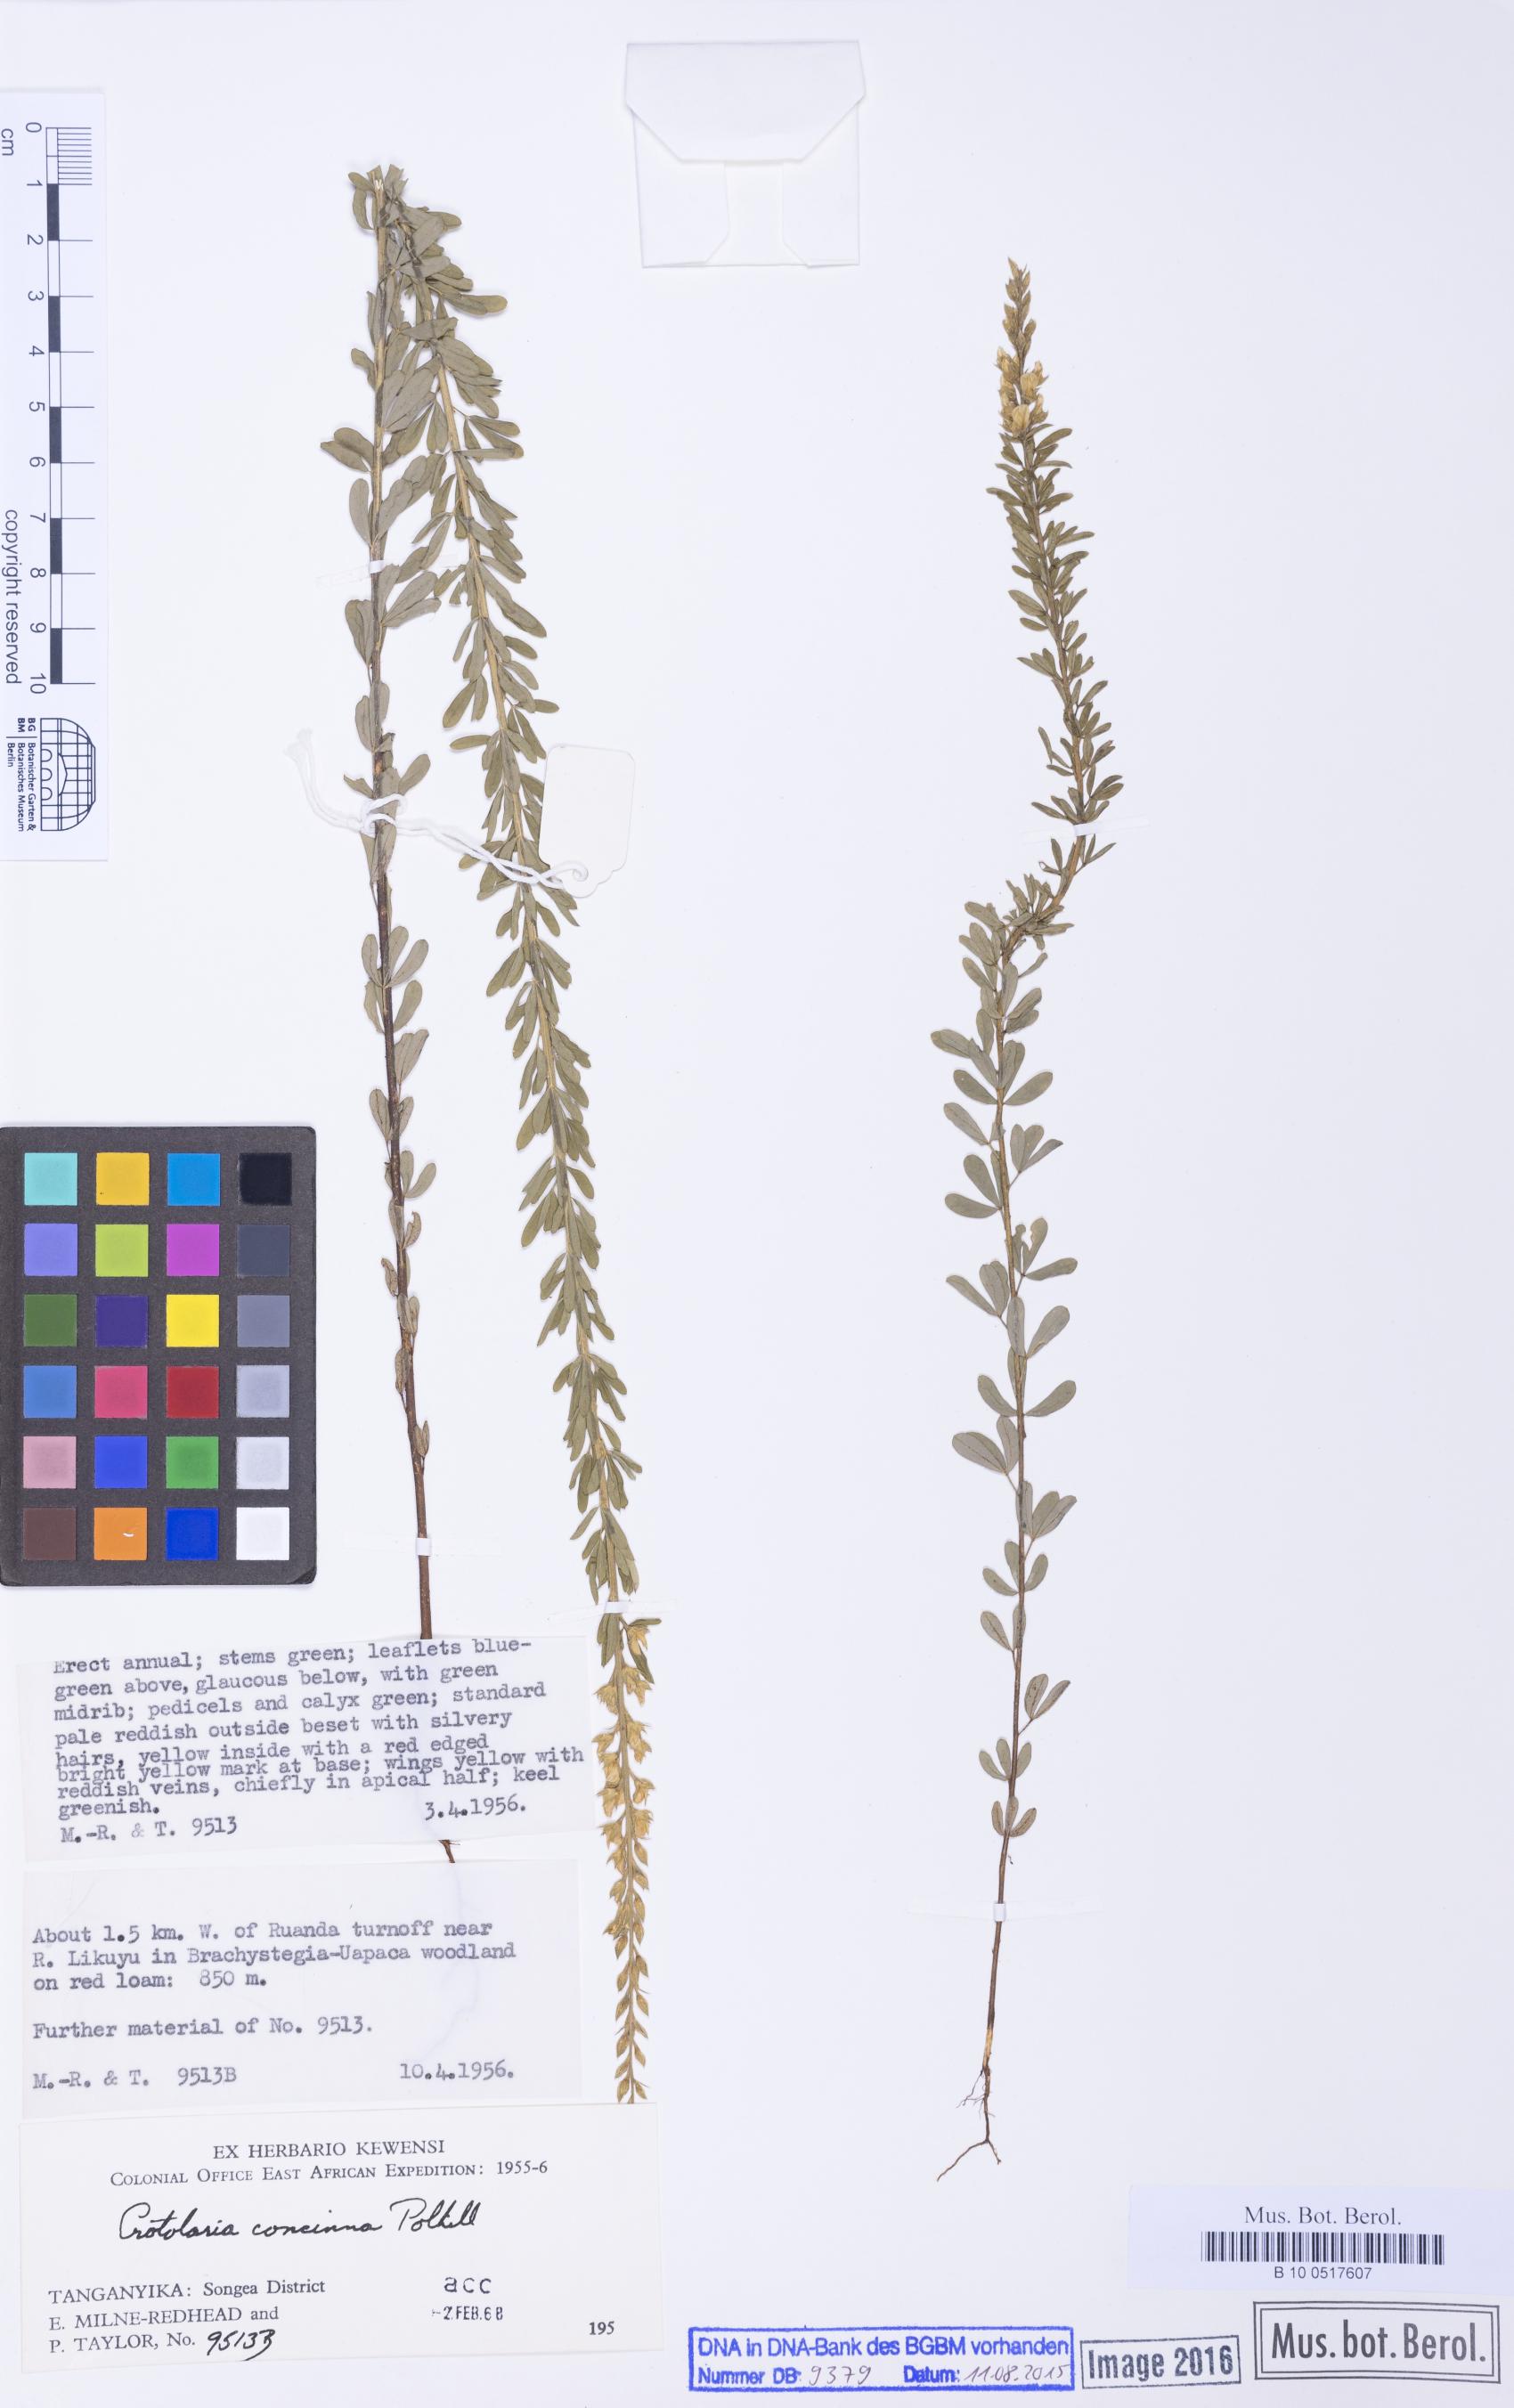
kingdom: Plantae
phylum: Tracheophyta
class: Magnoliopsida
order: Fabales
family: Fabaceae
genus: Crotalaria
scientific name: Crotalaria concinna
